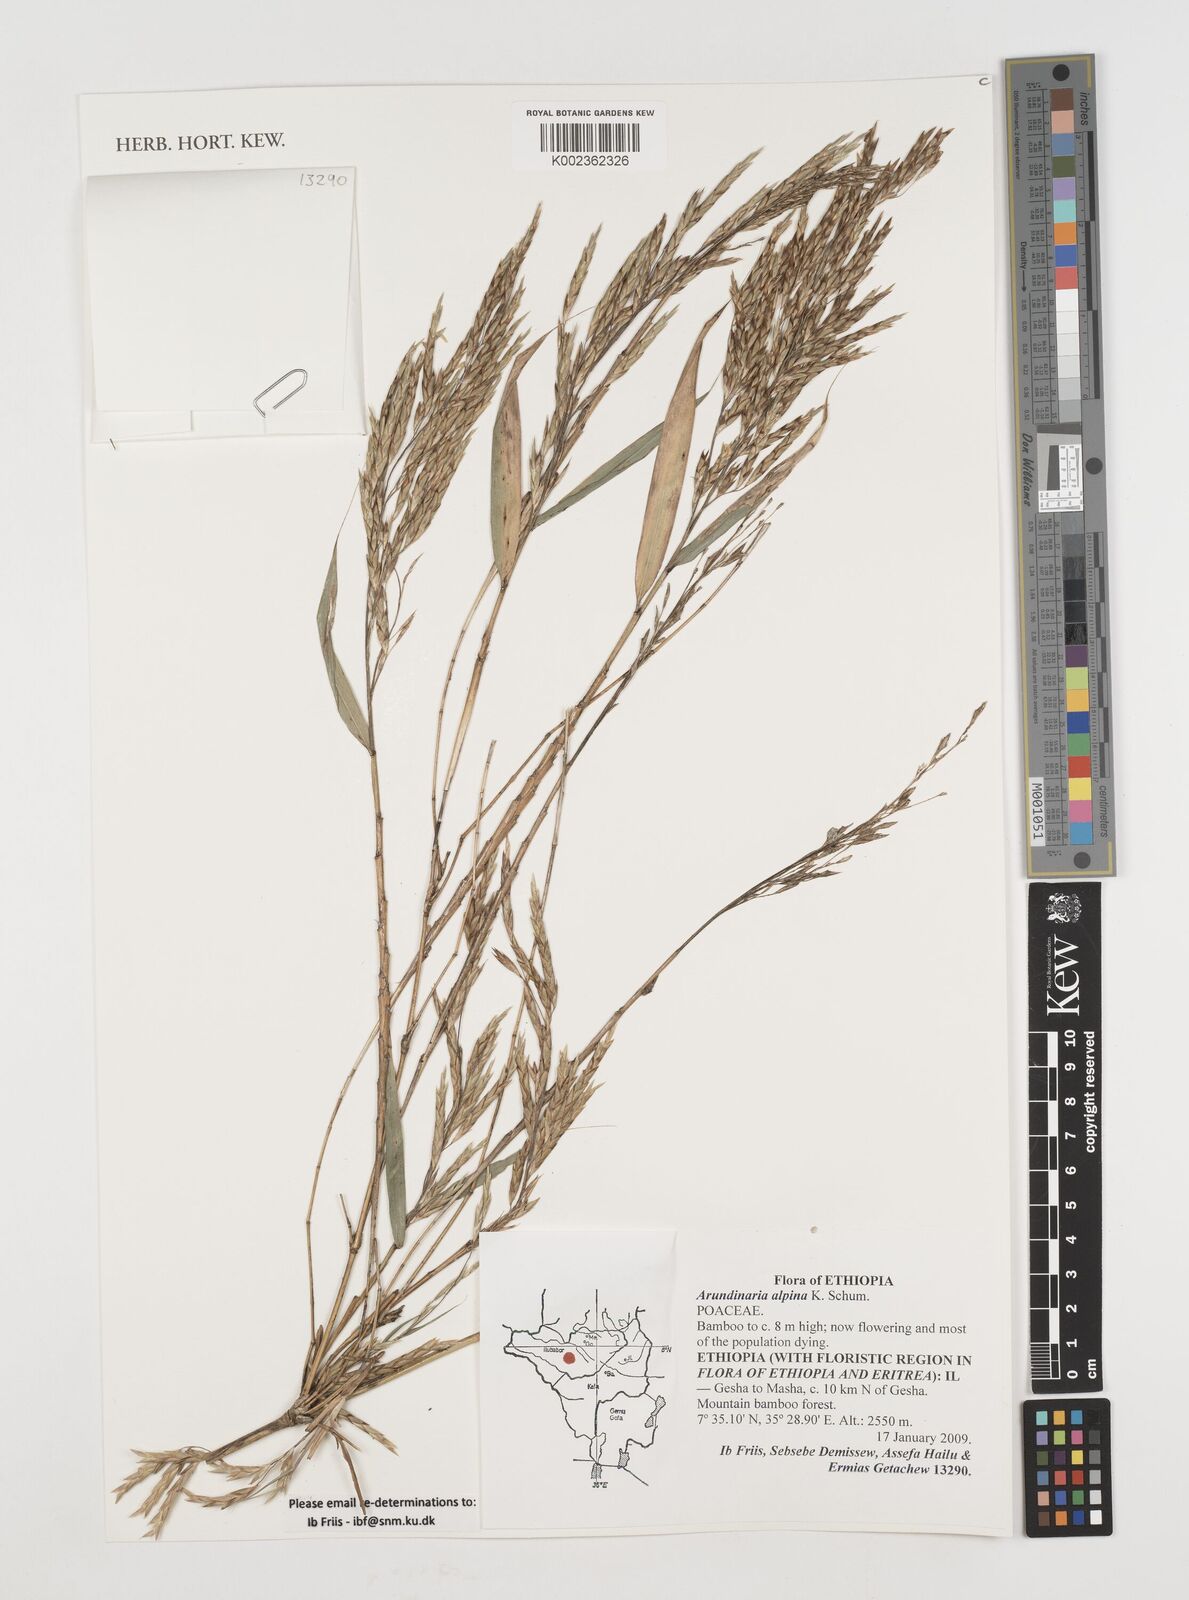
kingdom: Plantae
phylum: Tracheophyta
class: Liliopsida
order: Poales
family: Poaceae
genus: Oldeania
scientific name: Oldeania alpina
